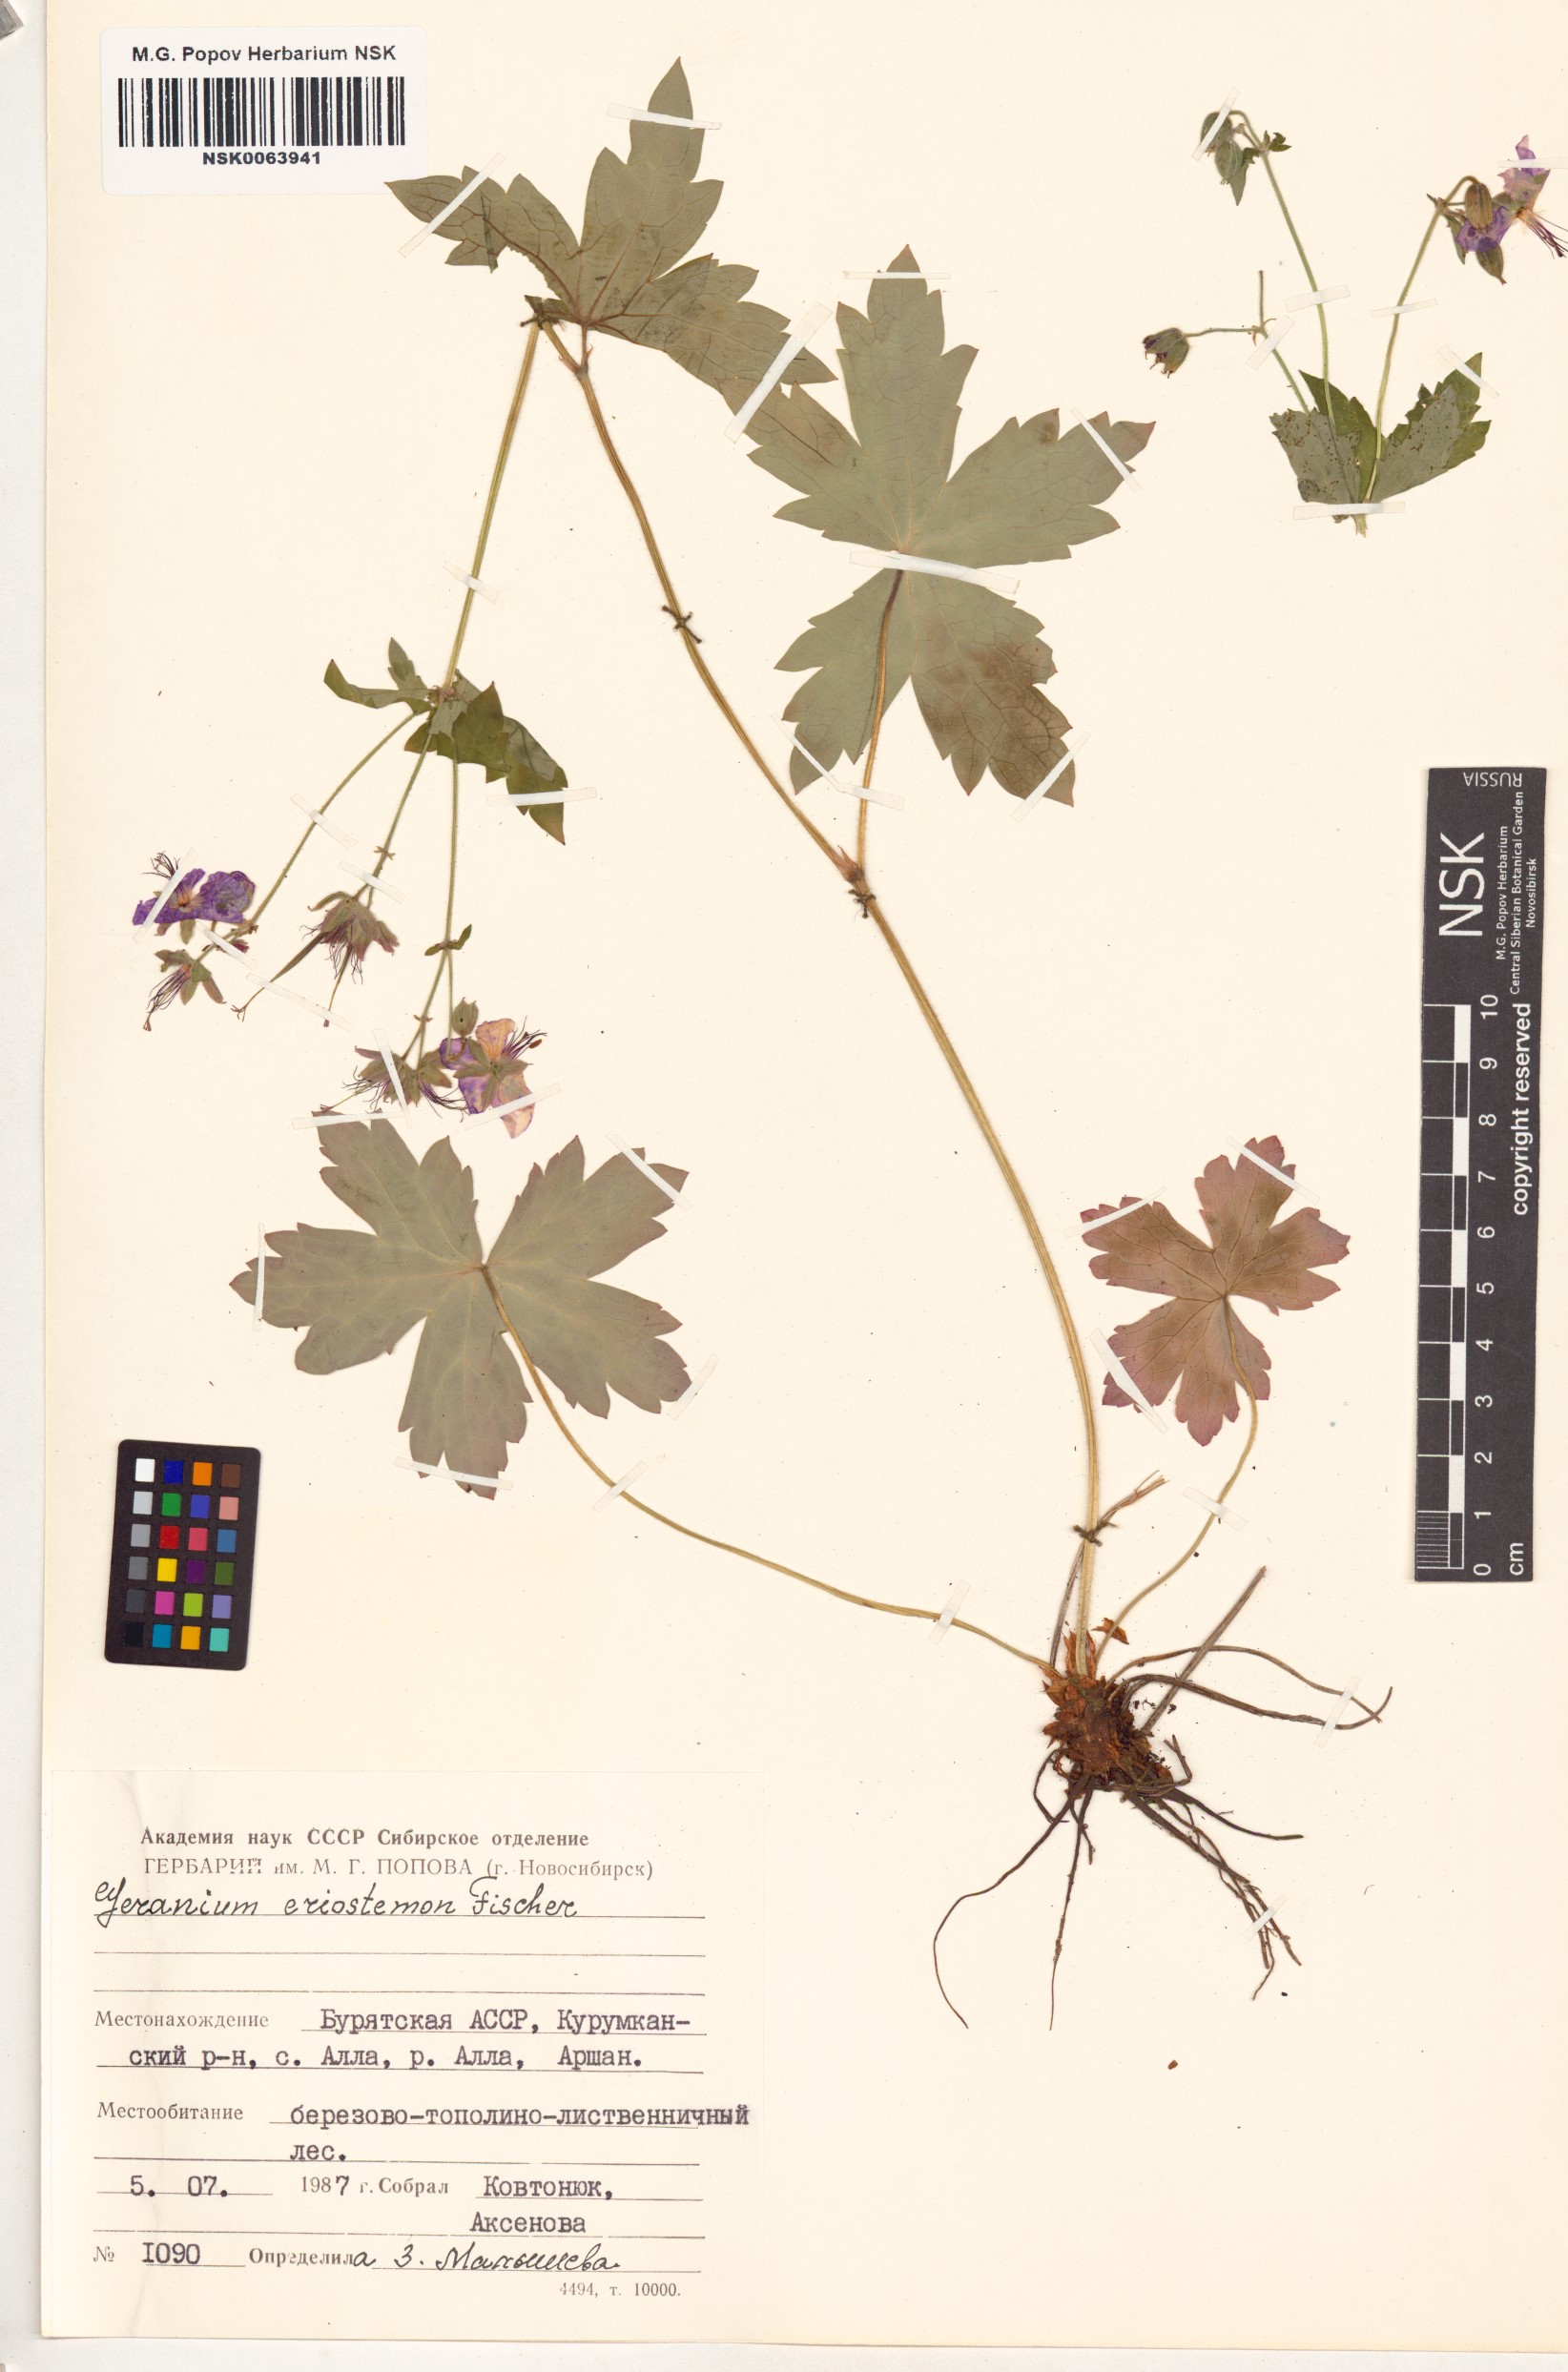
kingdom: Plantae
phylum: Tracheophyta
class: Magnoliopsida
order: Geraniales
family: Geraniaceae
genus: Geranium
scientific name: Geranium platyanthum
